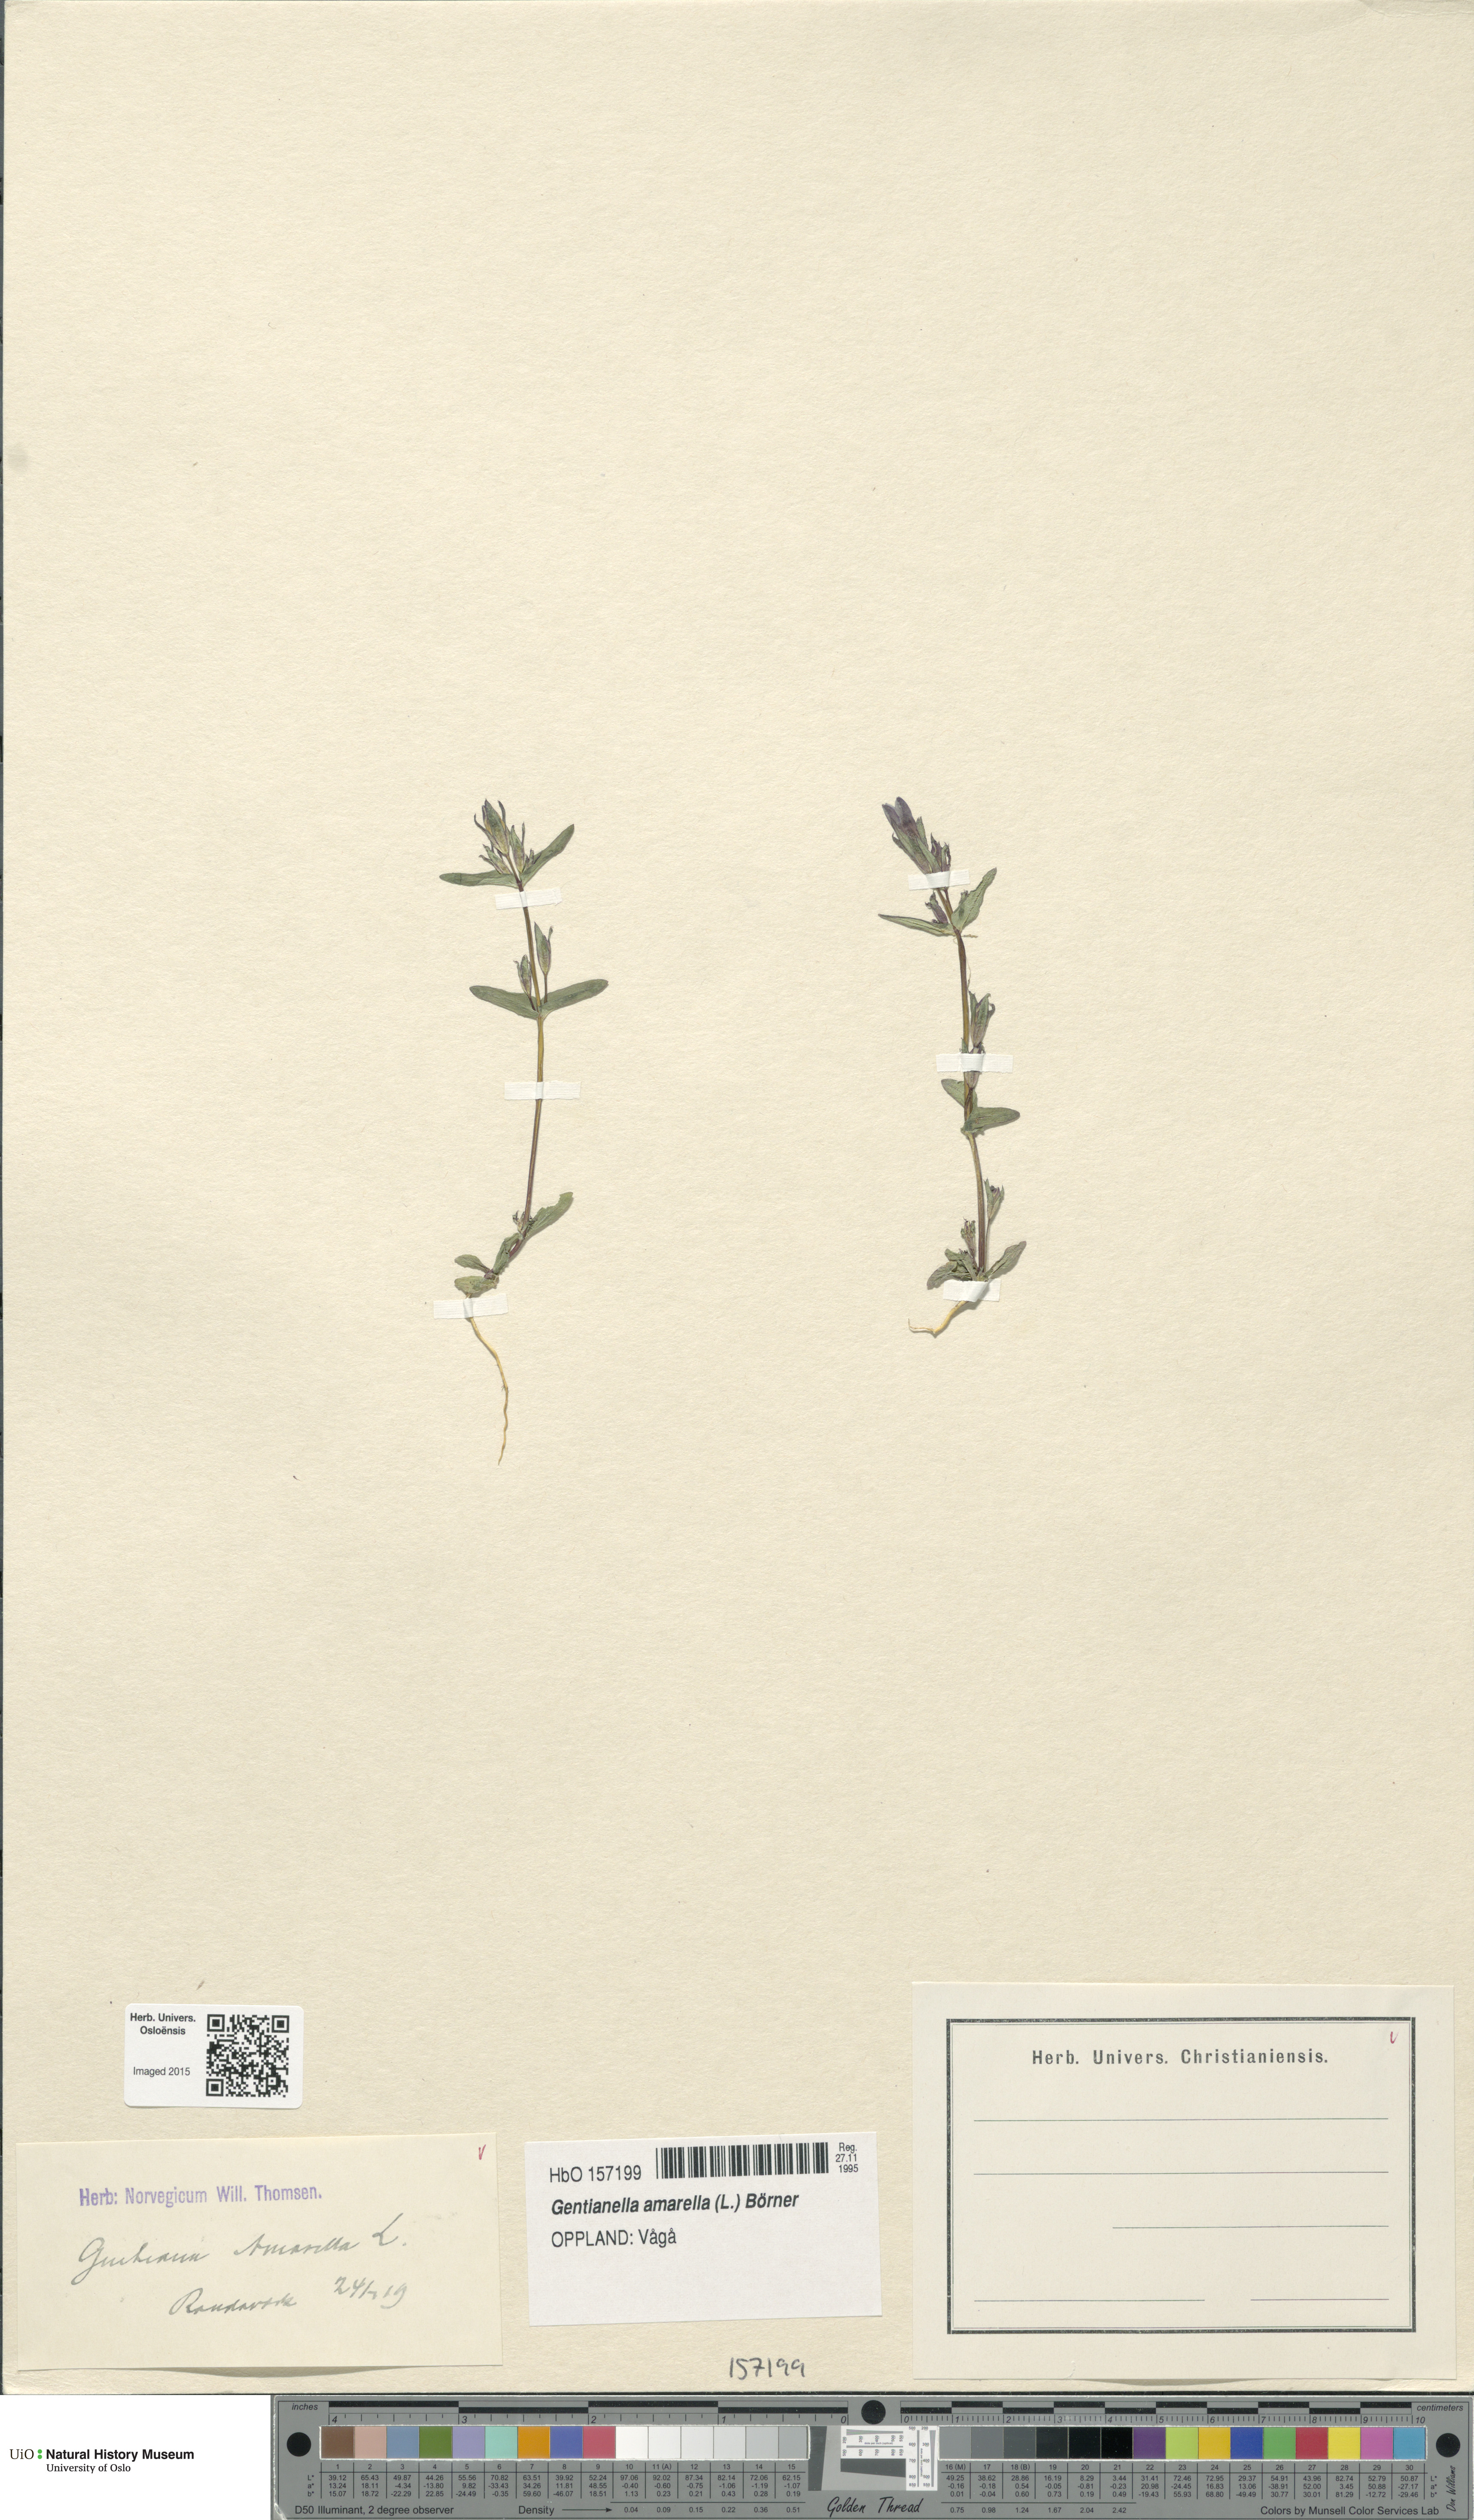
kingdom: Plantae
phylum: Tracheophyta
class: Magnoliopsida
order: Gentianales
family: Gentianaceae
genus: Gentianella
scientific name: Gentianella amarella
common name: Autumn gentian
